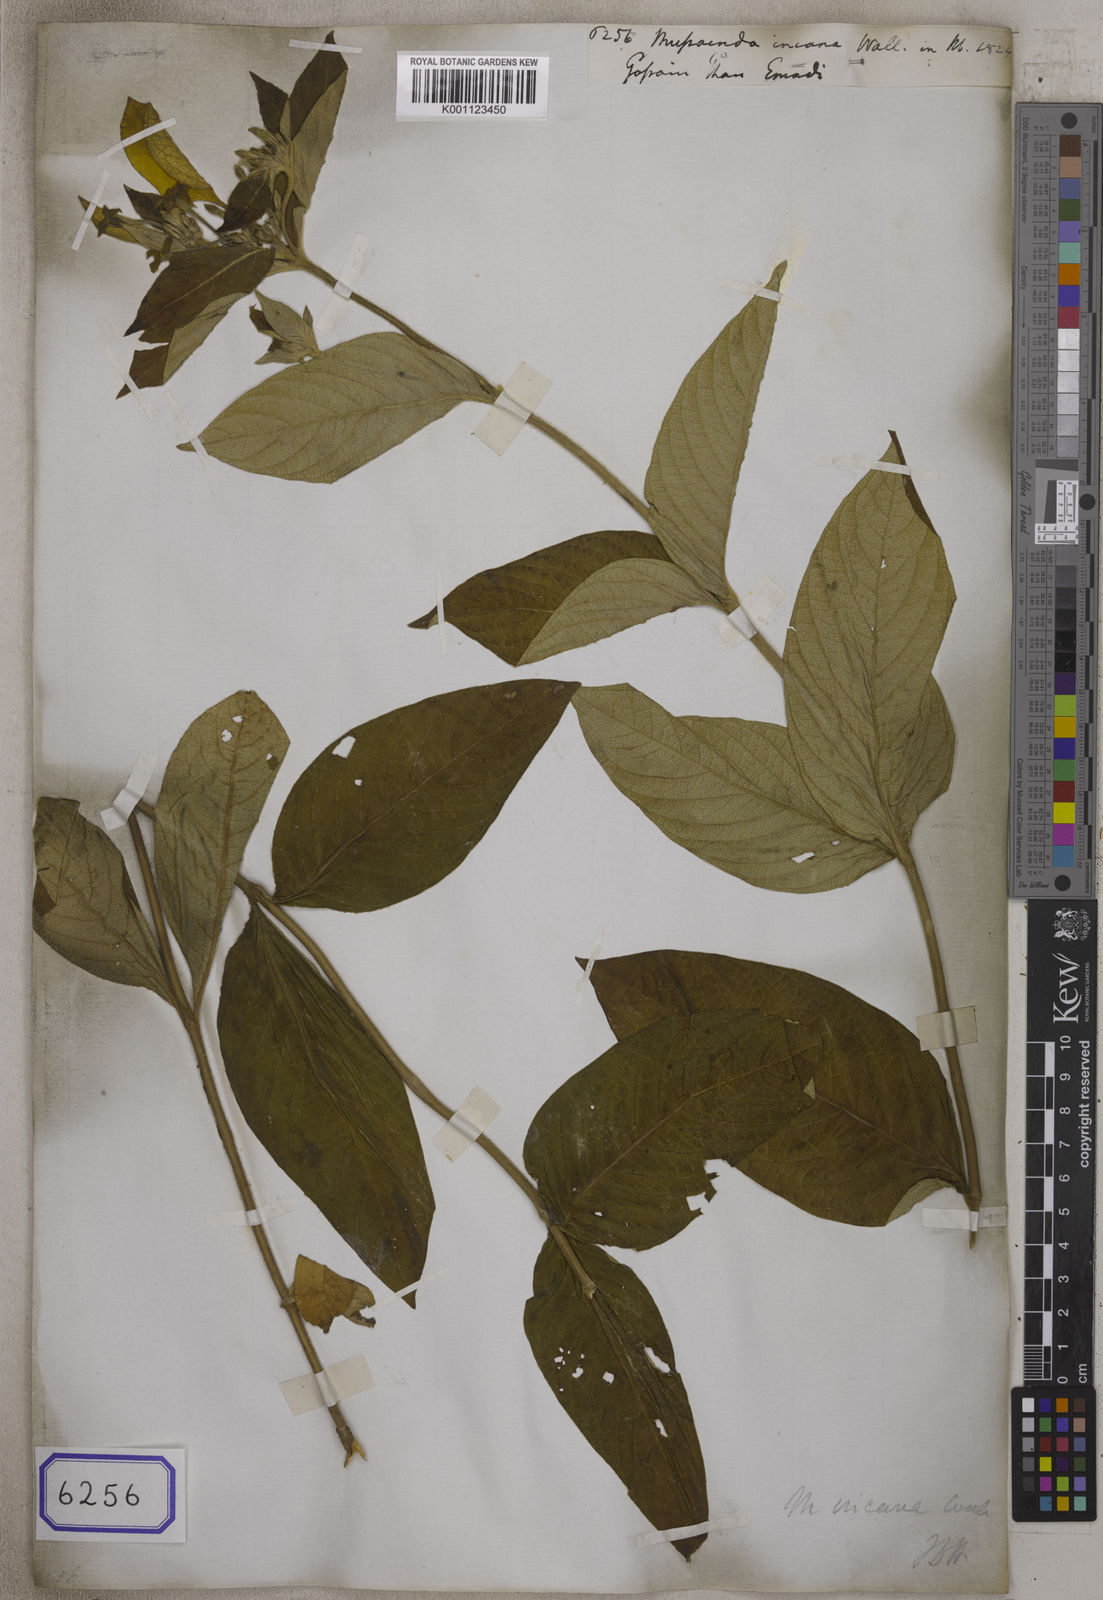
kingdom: Plantae
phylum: Tracheophyta
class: Magnoliopsida
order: Gentianales
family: Rubiaceae
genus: Mussaenda
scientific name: Mussaenda incana
